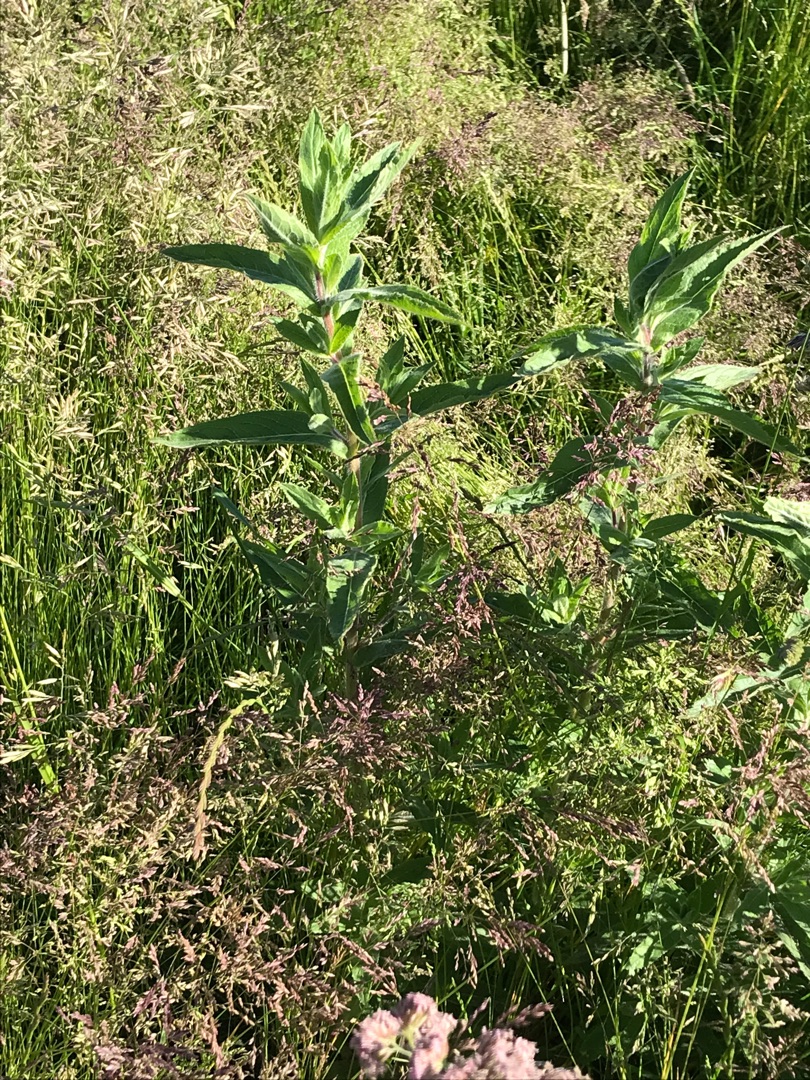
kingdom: Plantae
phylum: Tracheophyta
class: Magnoliopsida
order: Myrtales
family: Onagraceae
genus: Epilobium
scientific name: Epilobium hirsutum
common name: Lådden dueurt
